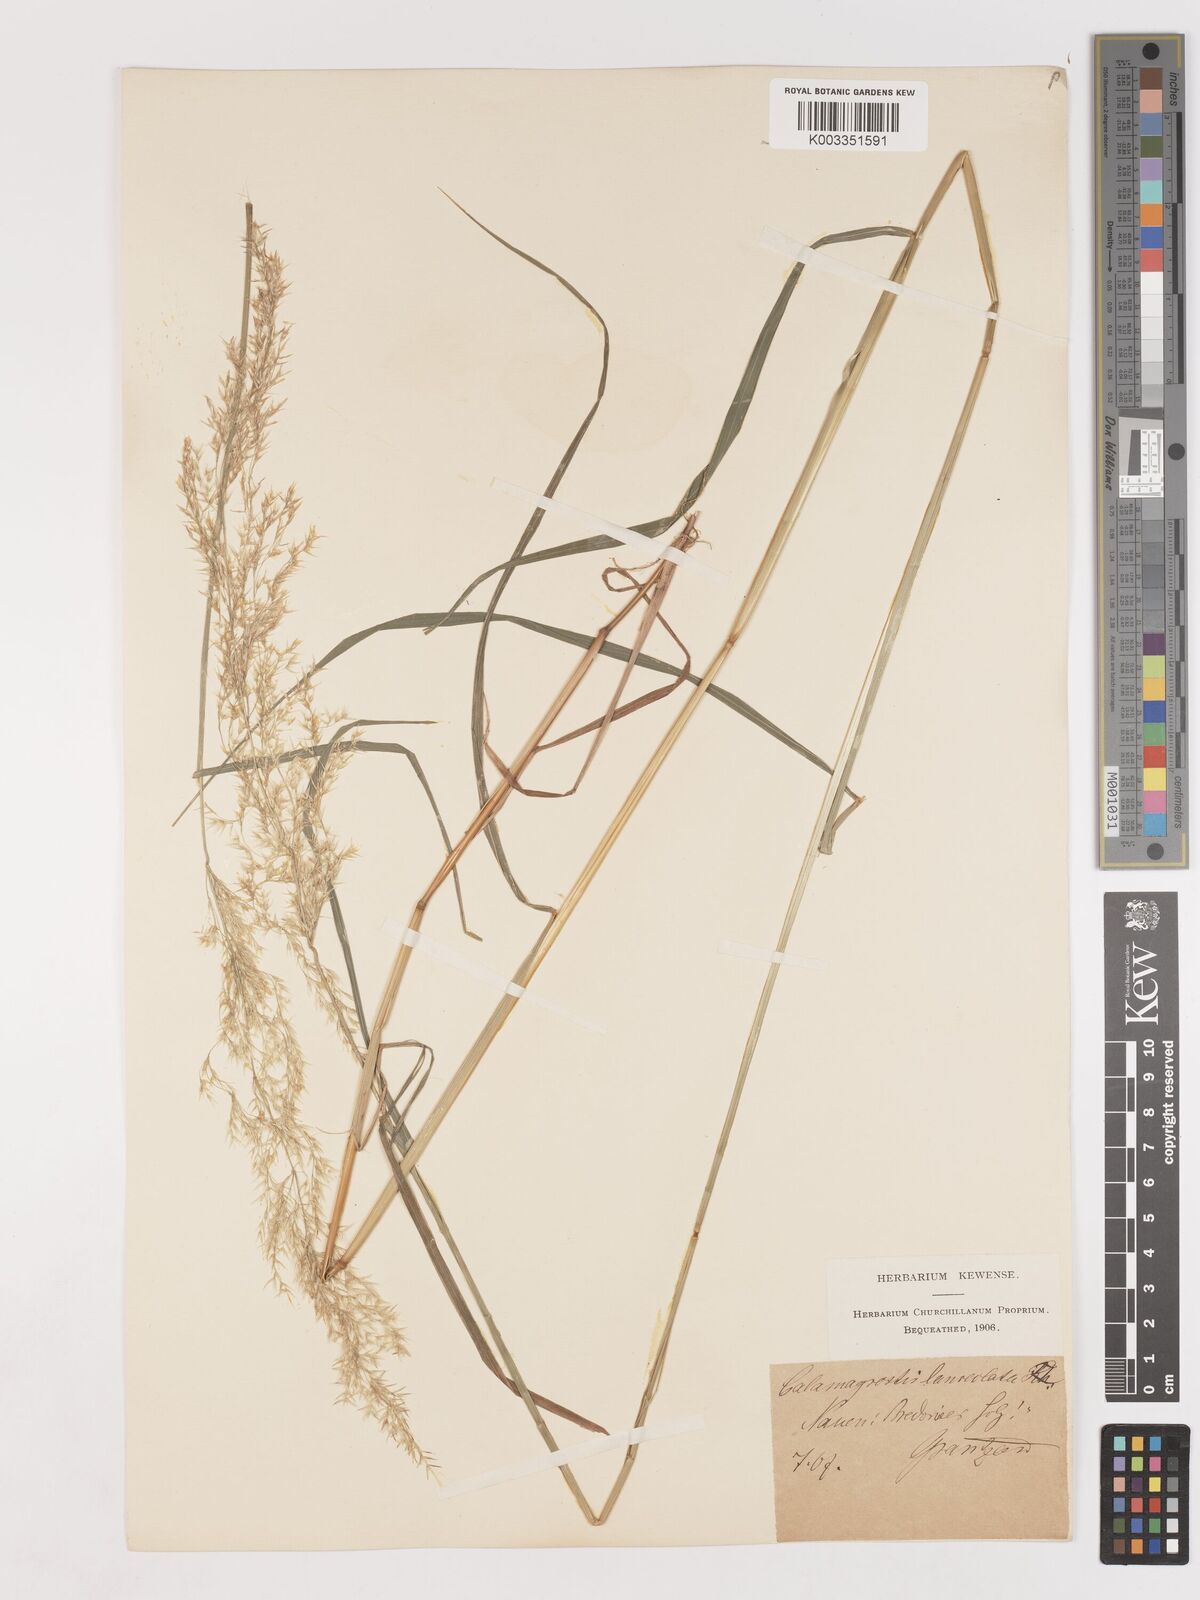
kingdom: Plantae
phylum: Tracheophyta
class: Liliopsida
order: Poales
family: Poaceae
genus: Calamagrostis
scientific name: Calamagrostis canescens
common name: Purple small-reed
